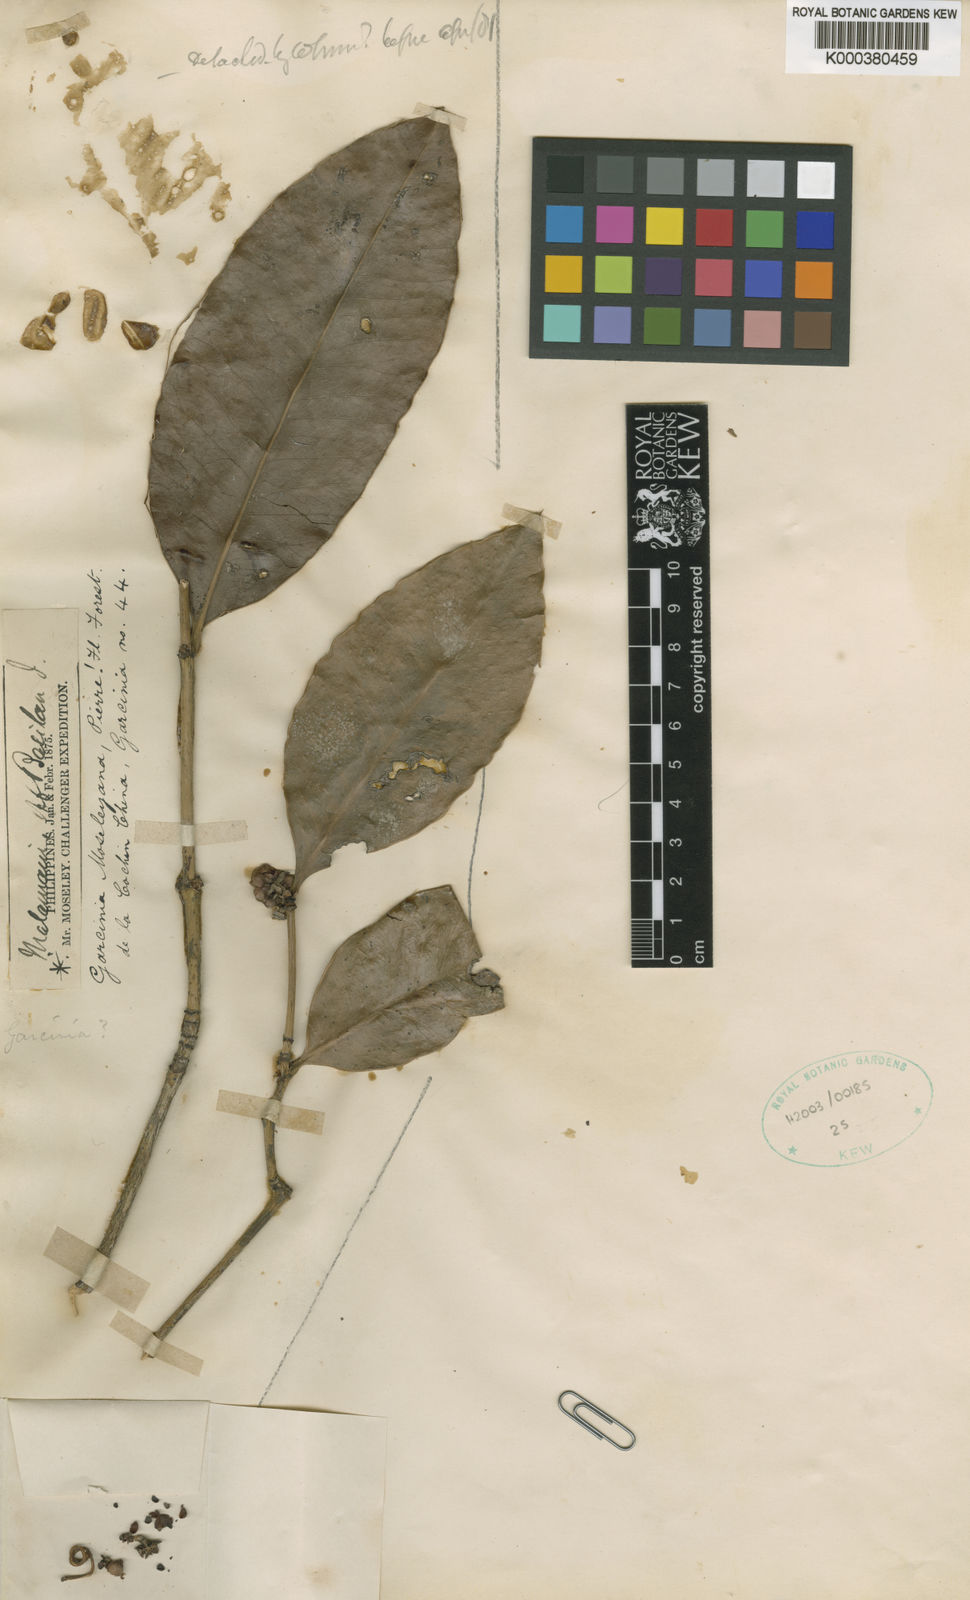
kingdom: Plantae
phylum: Tracheophyta
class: Magnoliopsida
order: Malpighiales
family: Clusiaceae
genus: Garcinia
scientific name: Garcinia moseleyana
